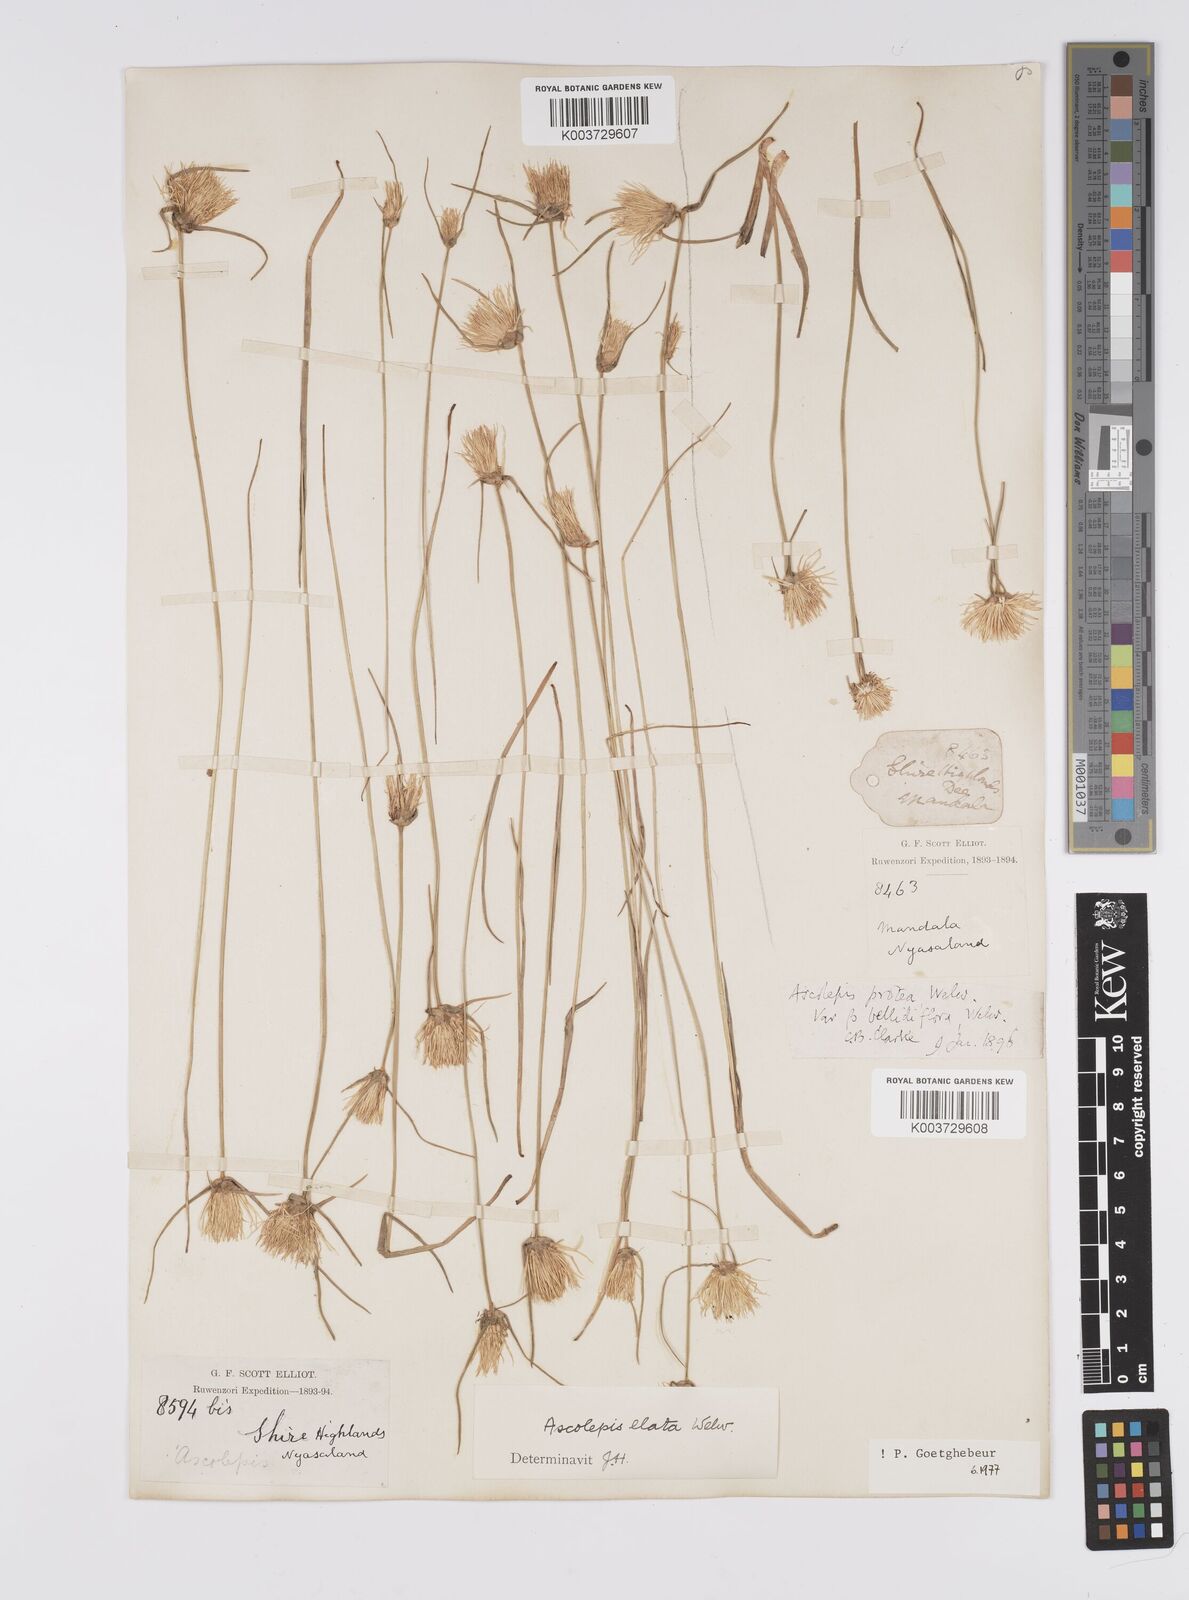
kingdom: Plantae
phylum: Tracheophyta
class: Liliopsida
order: Poales
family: Cyperaceae
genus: Cyperus
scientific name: Cyperus
